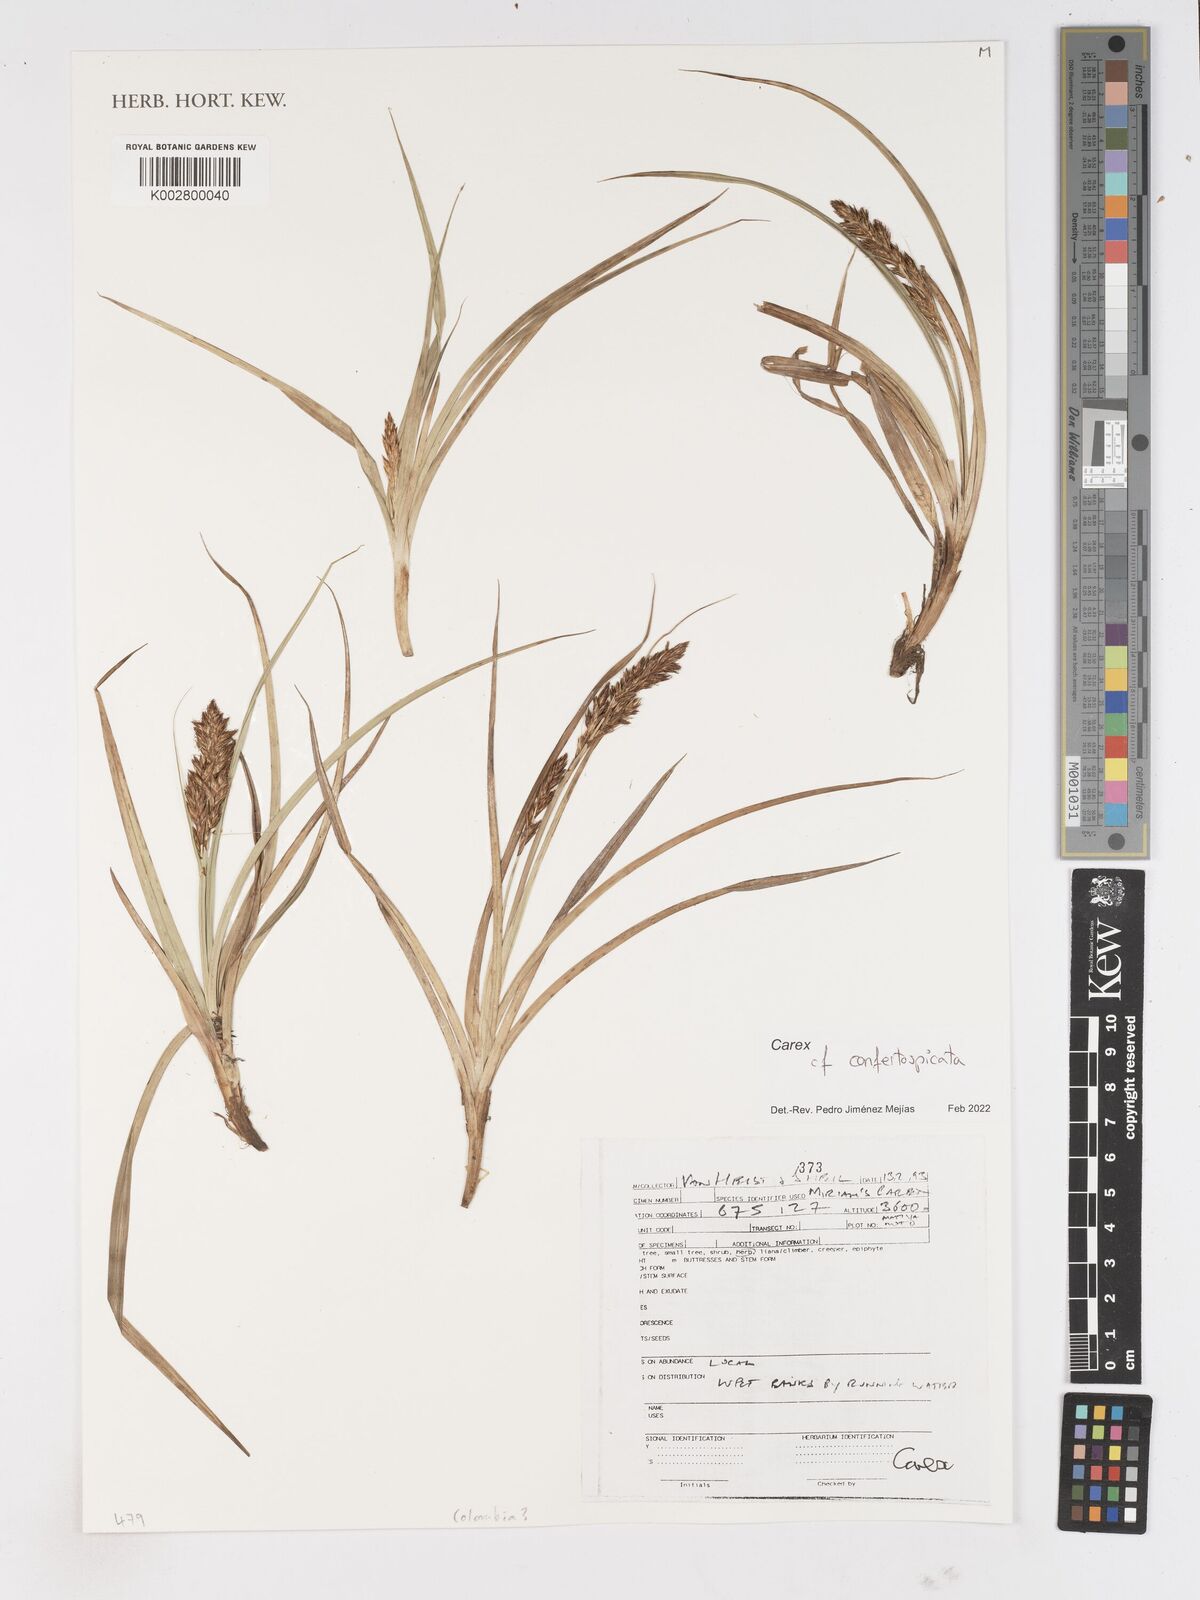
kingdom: Plantae
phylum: Tracheophyta
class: Liliopsida
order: Poales
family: Cyperaceae
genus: Carex
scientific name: Carex livida
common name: Livid sedge
